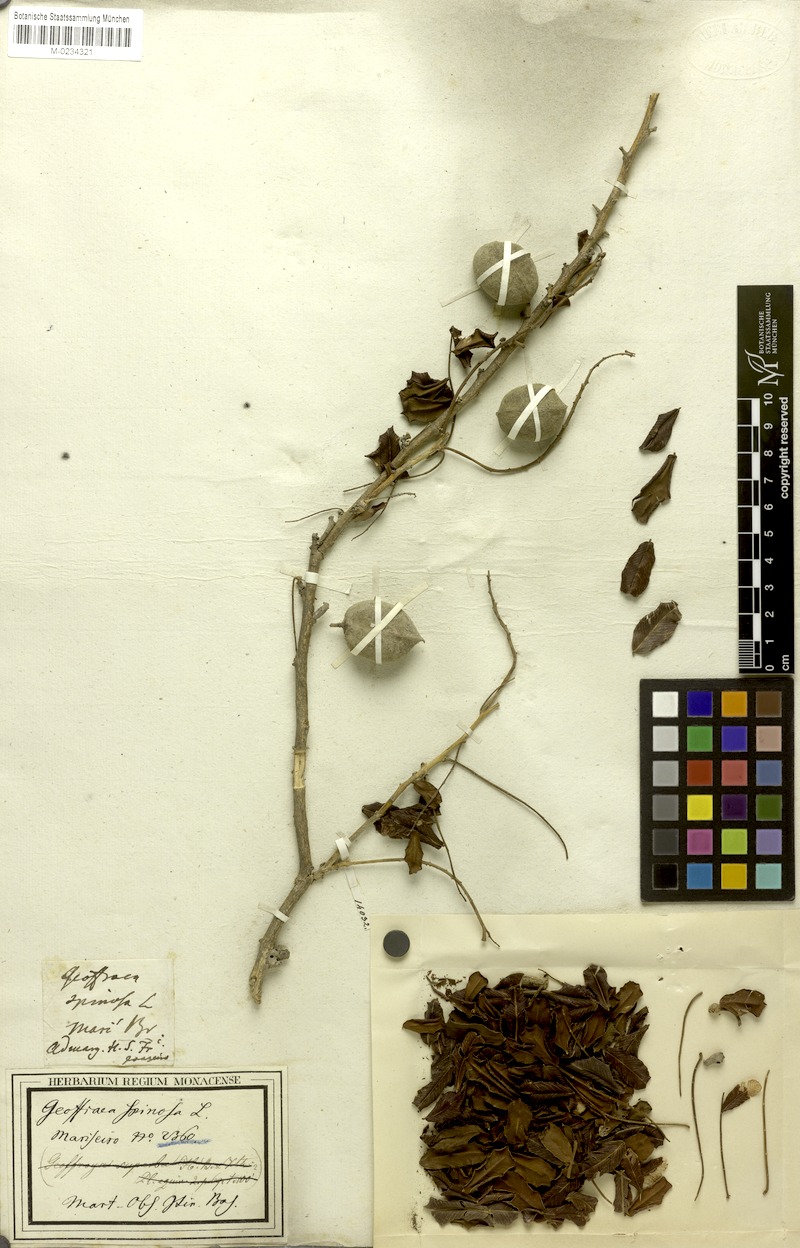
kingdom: Plantae
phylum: Tracheophyta
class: Magnoliopsida
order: Fabales
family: Fabaceae
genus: Geoffroea
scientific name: Geoffroea spinosa
